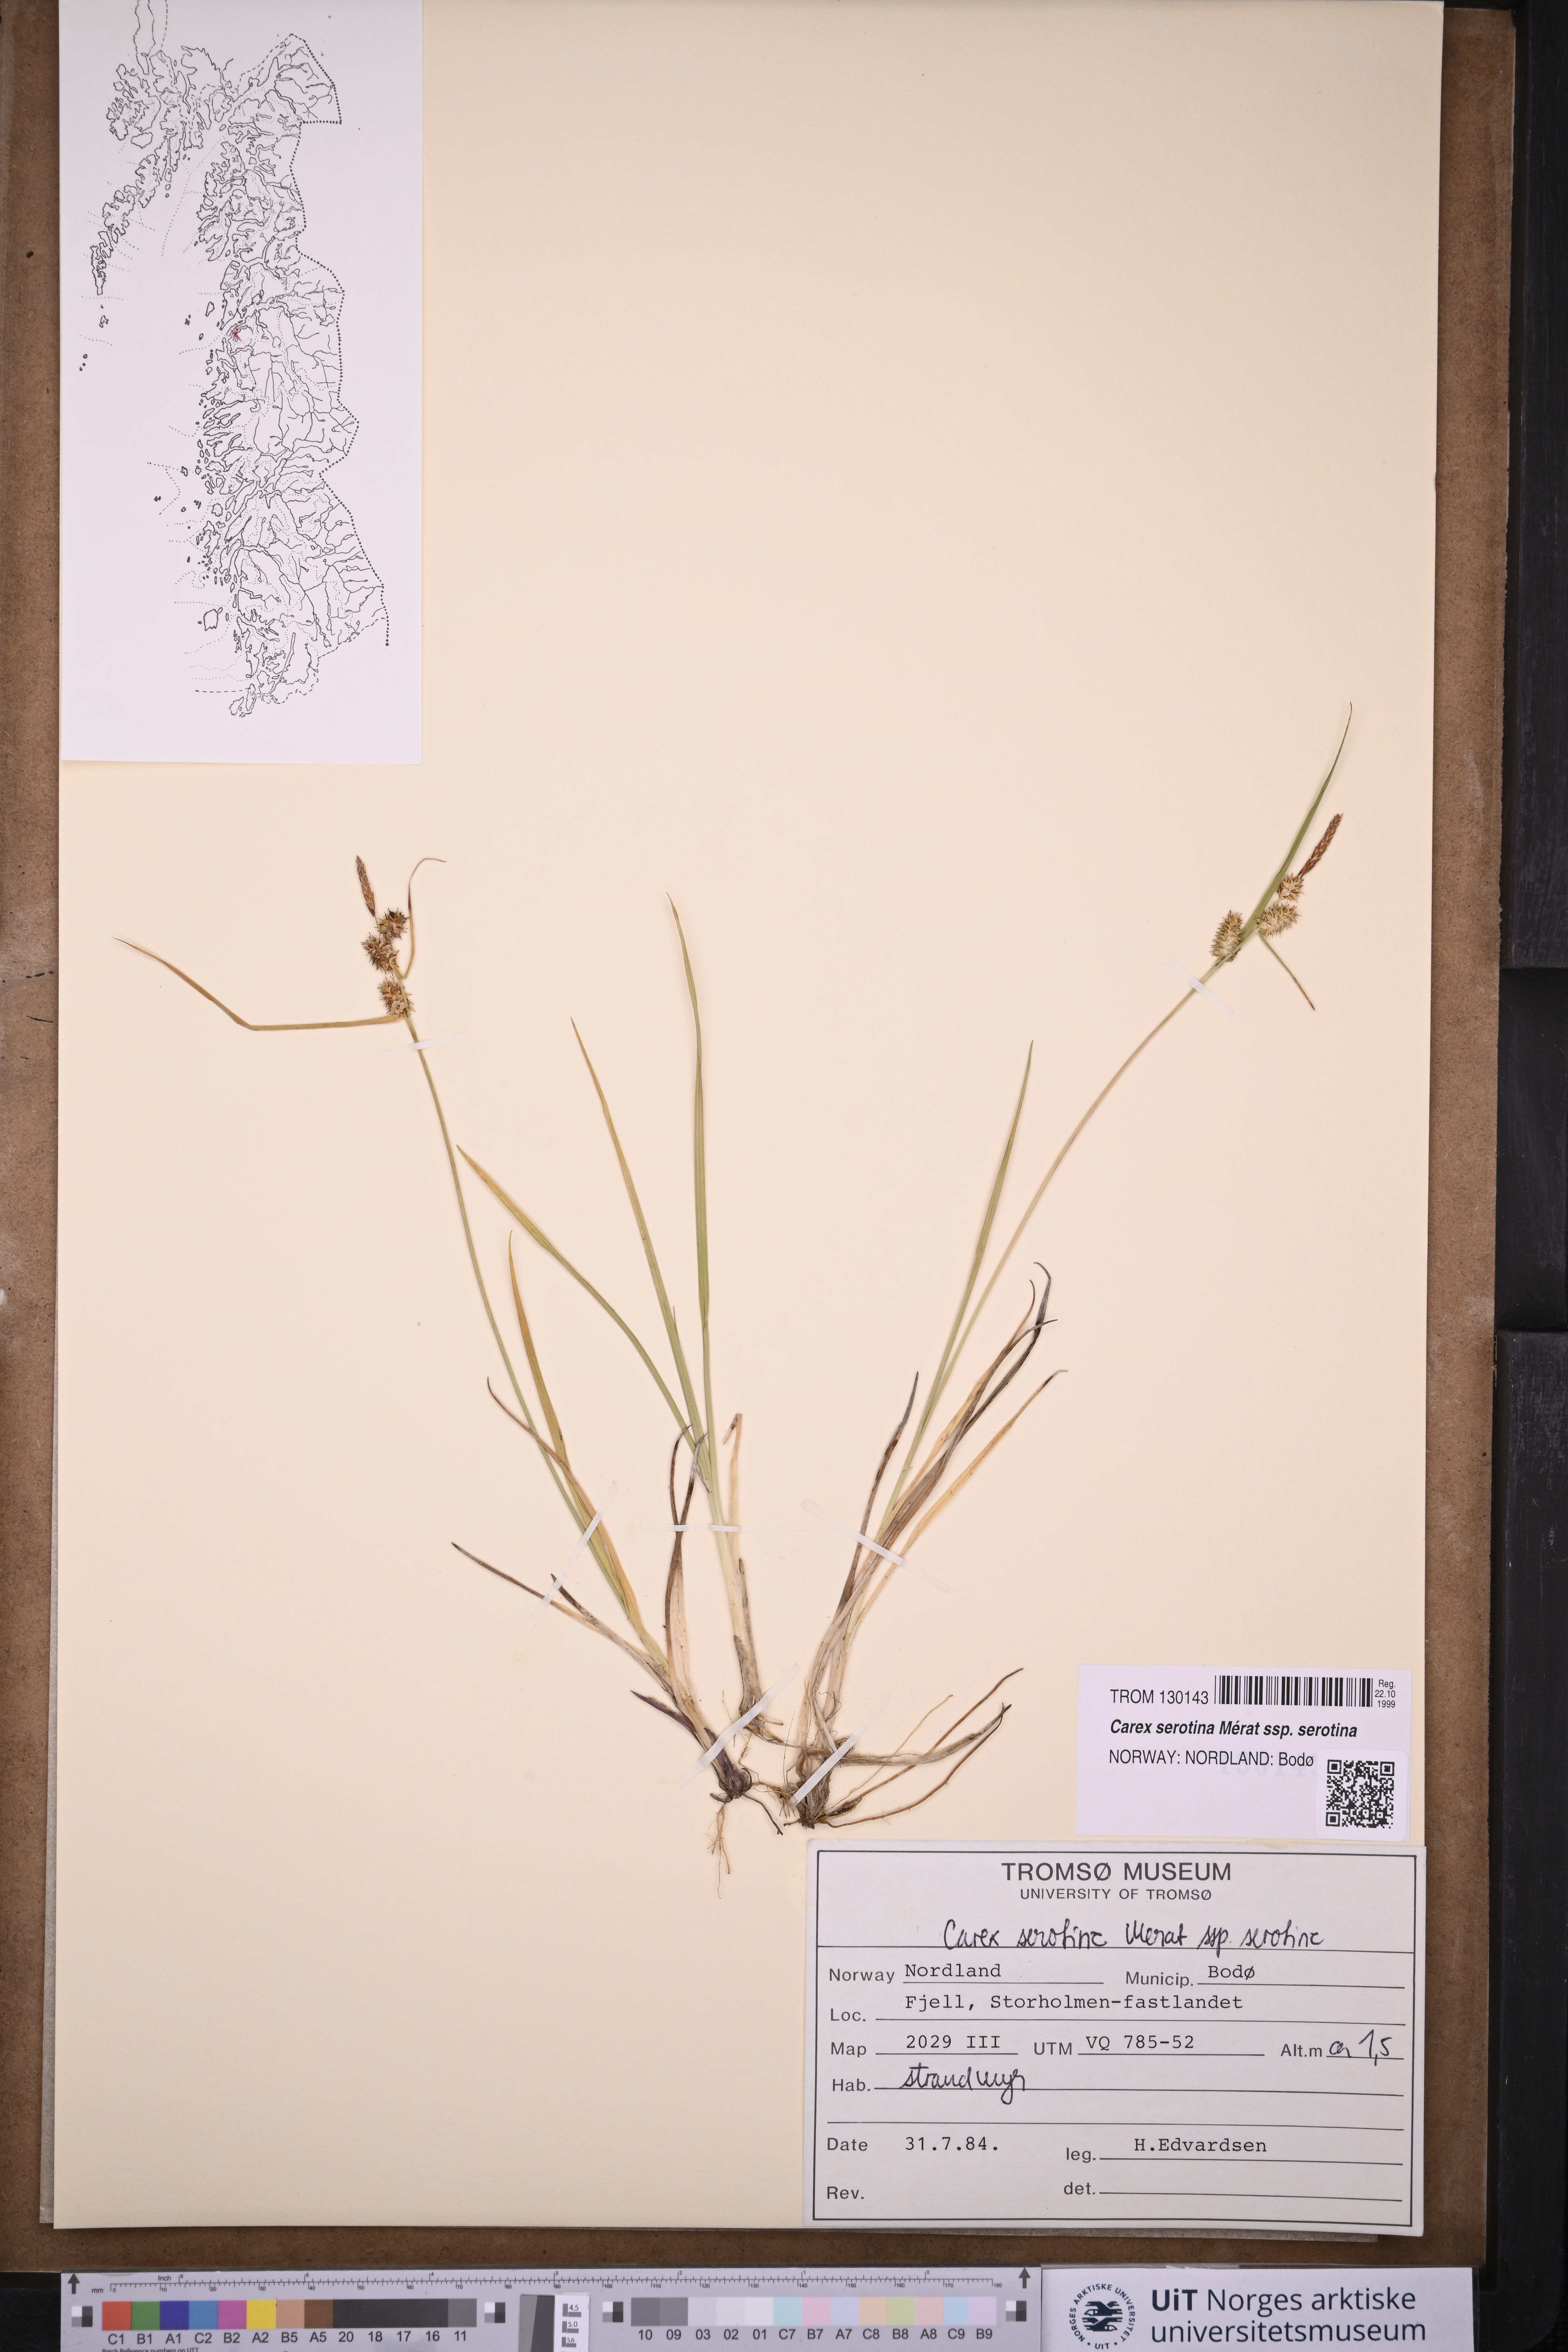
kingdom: Plantae
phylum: Tracheophyta
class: Liliopsida
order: Poales
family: Cyperaceae
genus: Carex
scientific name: Carex oederi
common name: Common & small-fruited yellow-sedge
